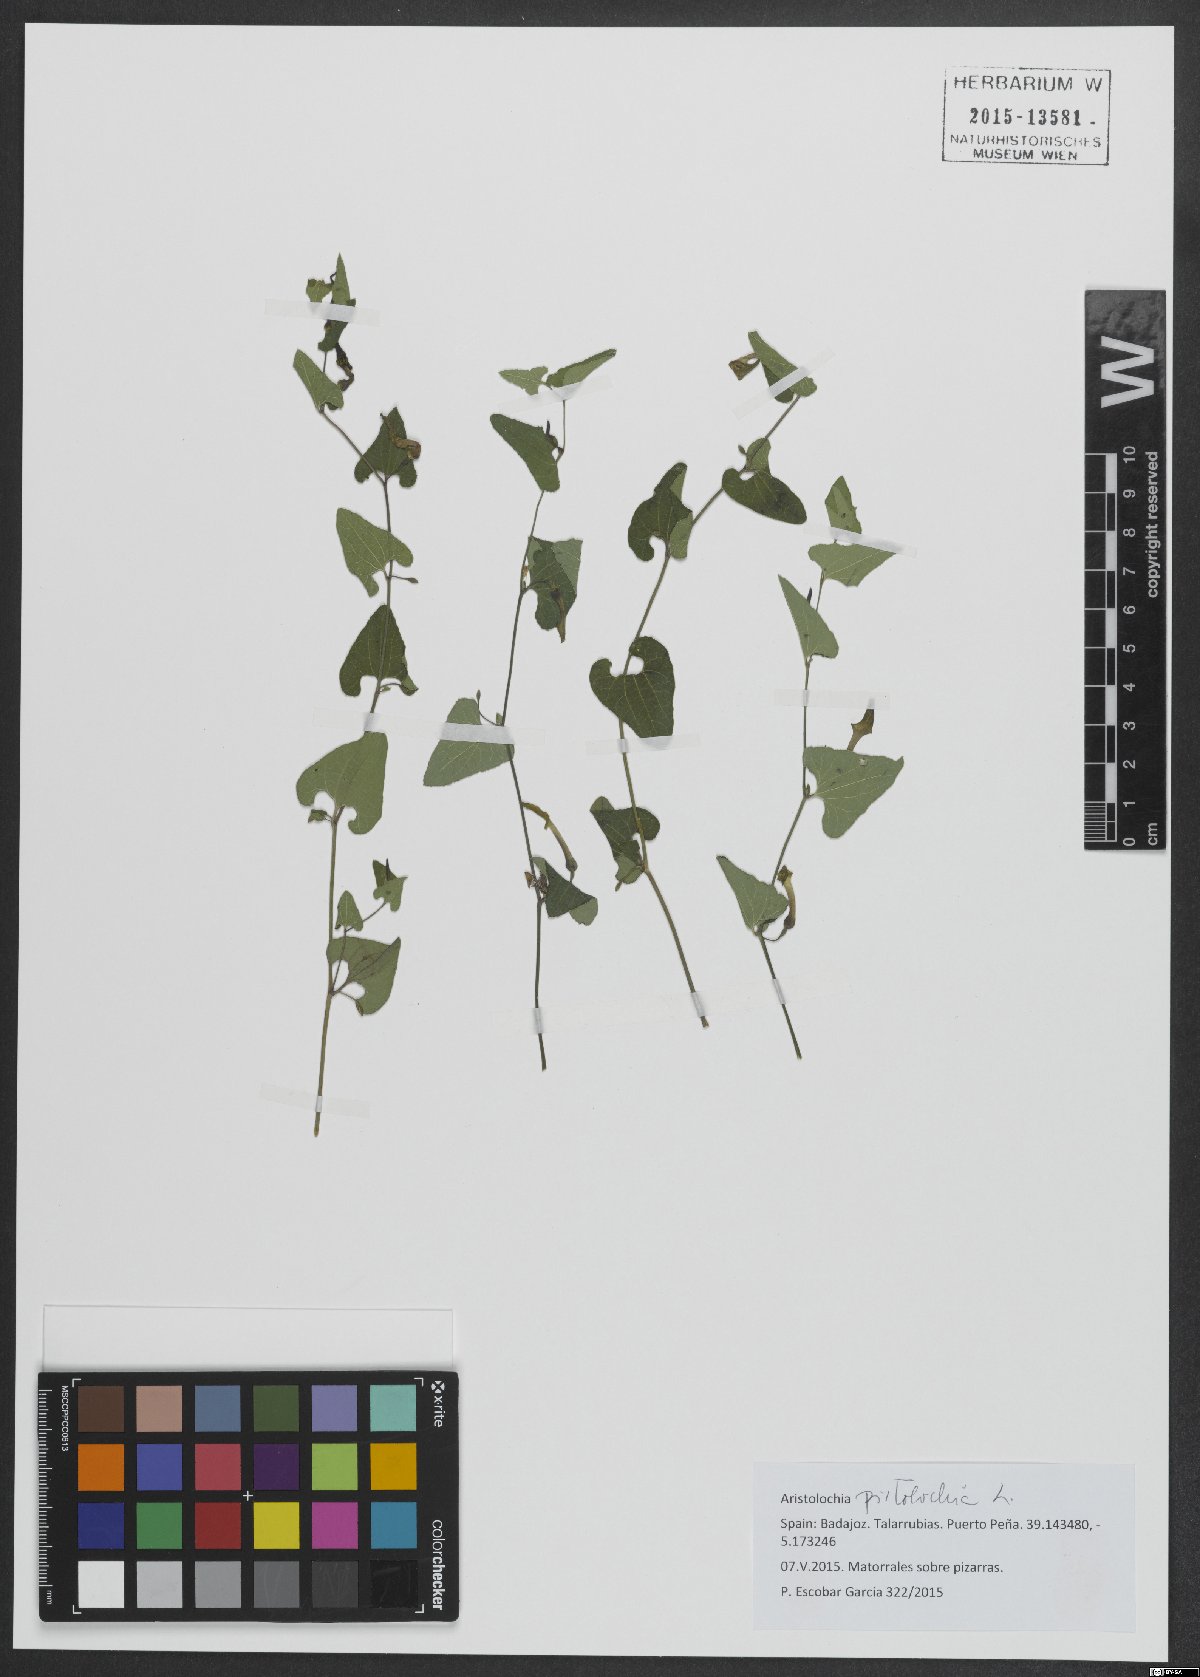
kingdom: Plantae
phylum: Tracheophyta
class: Magnoliopsida
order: Piperales
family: Aristolochiaceae
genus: Aristolochia
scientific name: Aristolochia pistolochia
